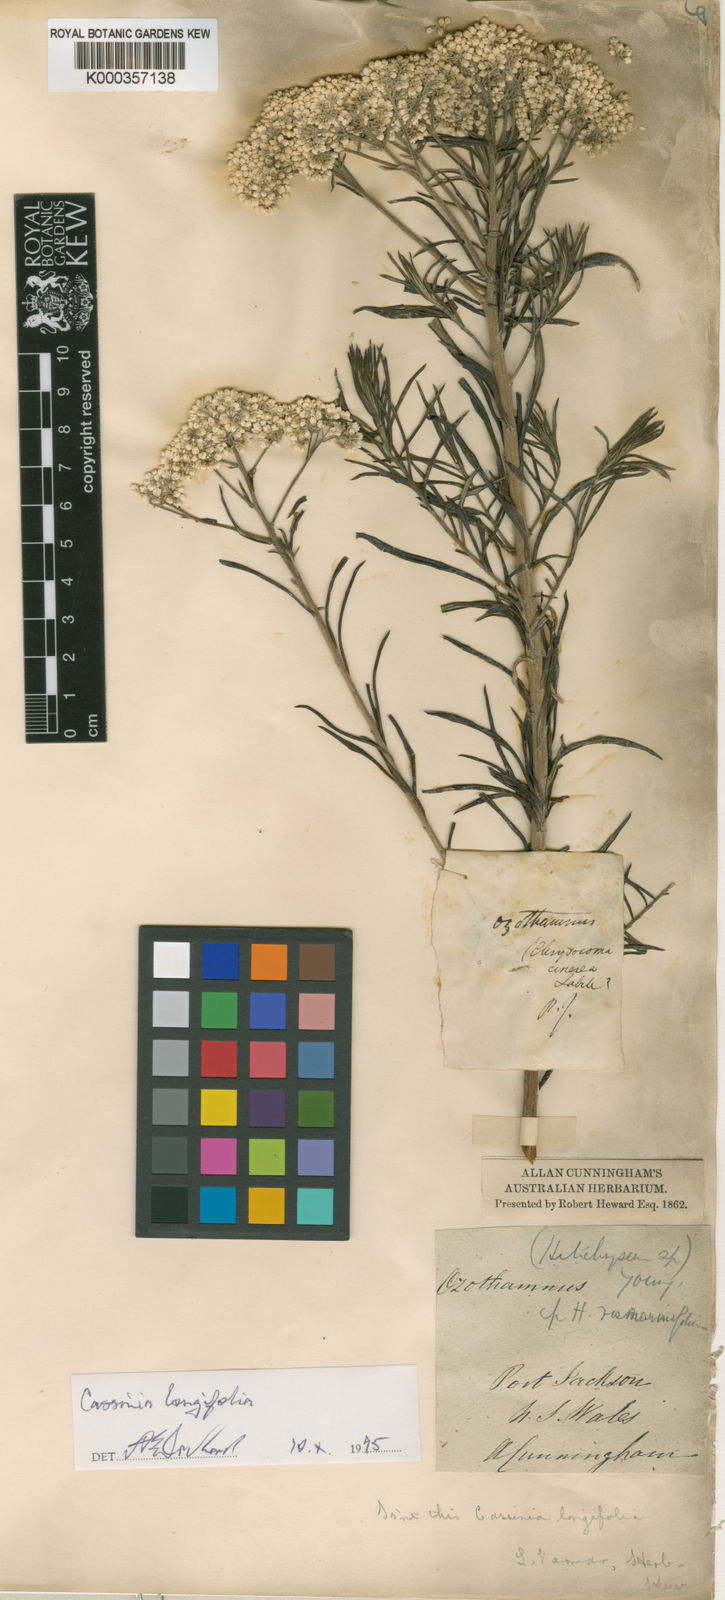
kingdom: Plantae
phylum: Tracheophyta
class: Magnoliopsida
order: Asterales
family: Asteraceae
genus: Cassinia
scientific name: Cassinia longifolia
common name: Longleaf-dogwood
